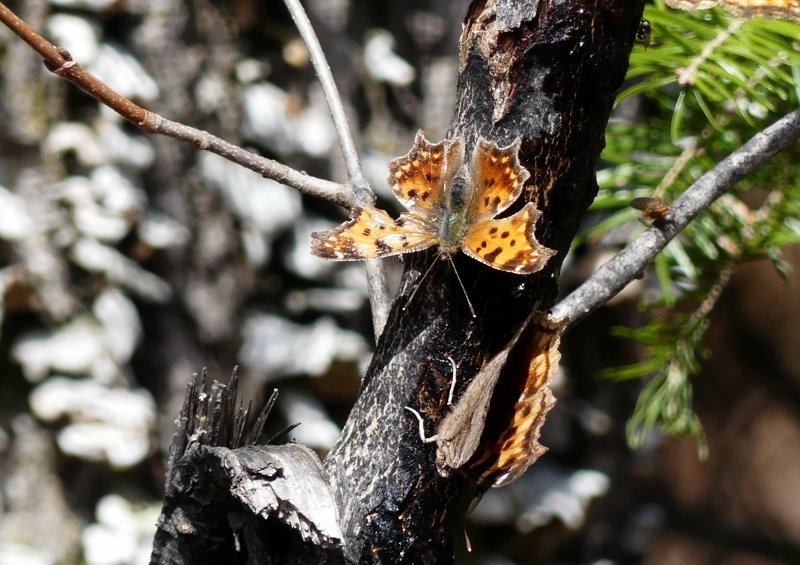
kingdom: Animalia
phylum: Arthropoda
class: Insecta
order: Lepidoptera
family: Nymphalidae
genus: Polygonia
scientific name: Polygonia comma
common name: Eastern Comma
